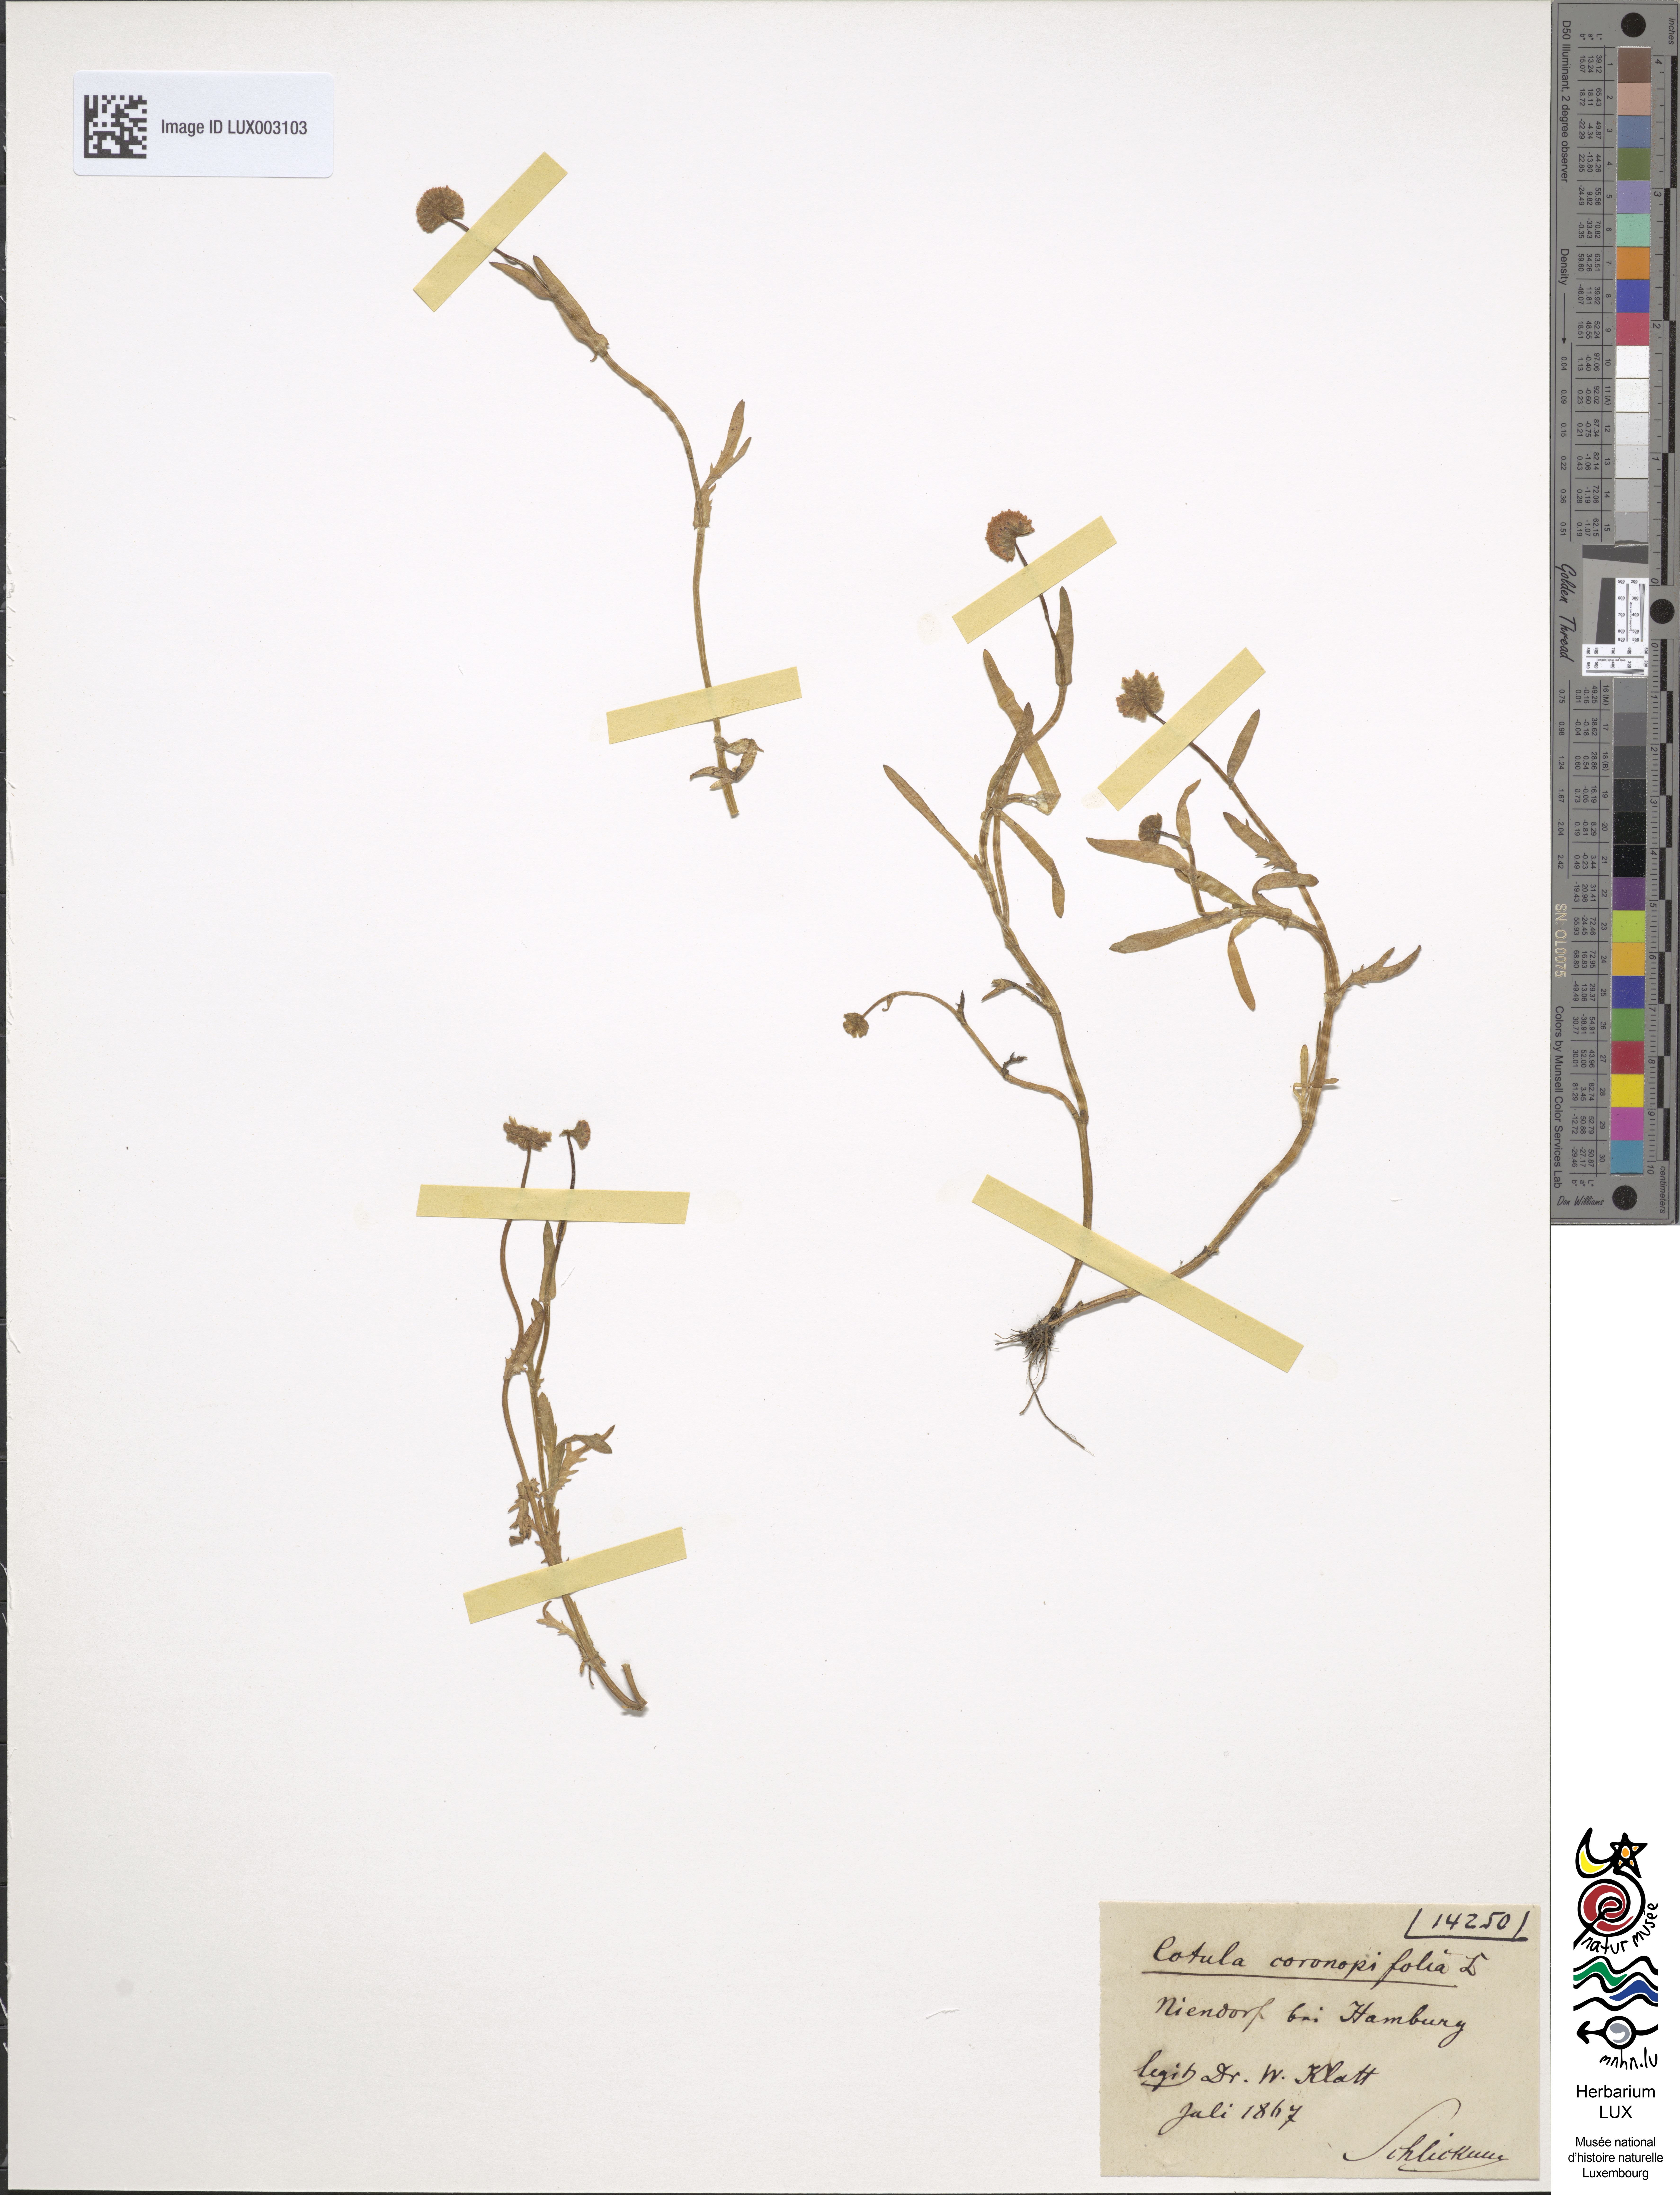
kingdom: Plantae
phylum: Tracheophyta
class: Magnoliopsida
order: Asterales
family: Asteraceae
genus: Cotula
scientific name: Cotula coronopifolia
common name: Buttonweed
